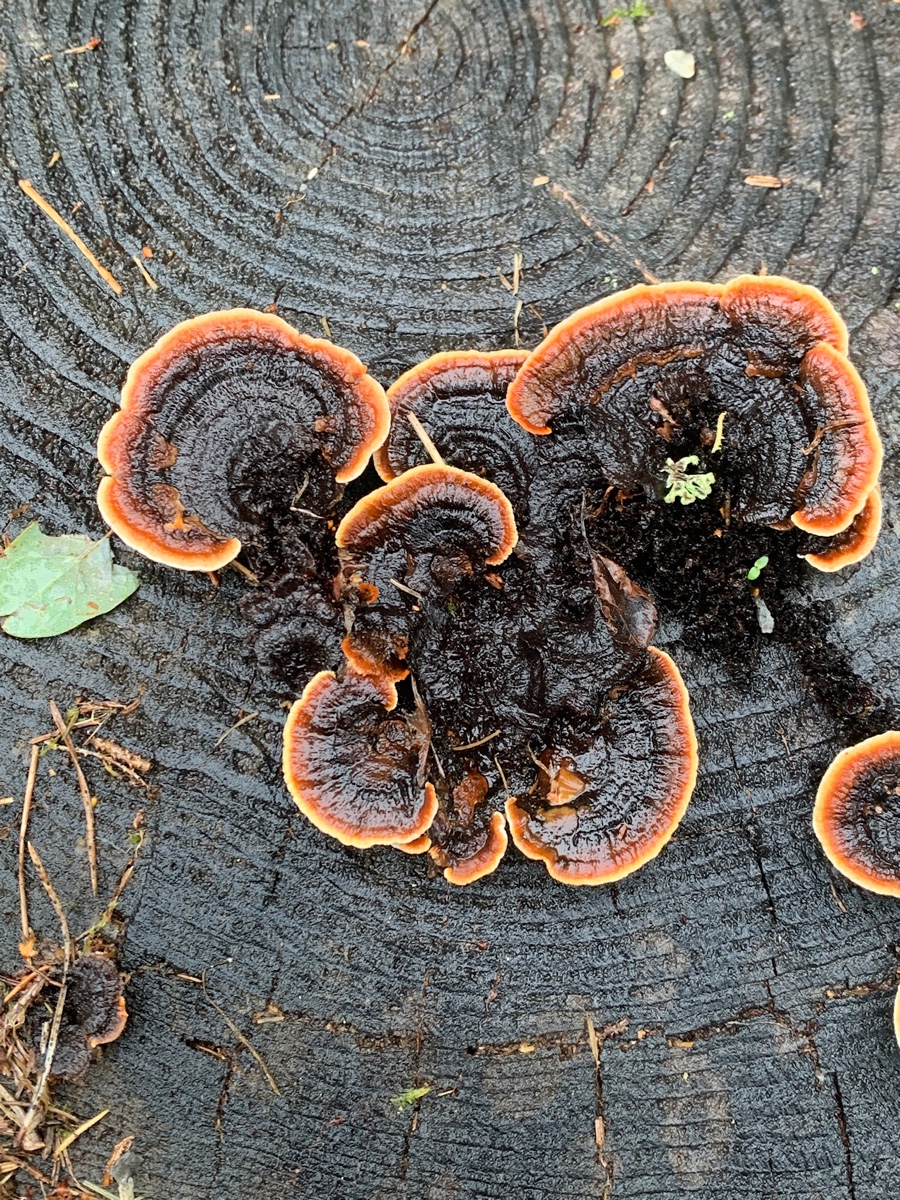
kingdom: Fungi
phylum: Basidiomycota
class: Agaricomycetes
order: Gloeophyllales
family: Gloeophyllaceae
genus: Gloeophyllum
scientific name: Gloeophyllum sepiarium
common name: fyrre-korkhat
